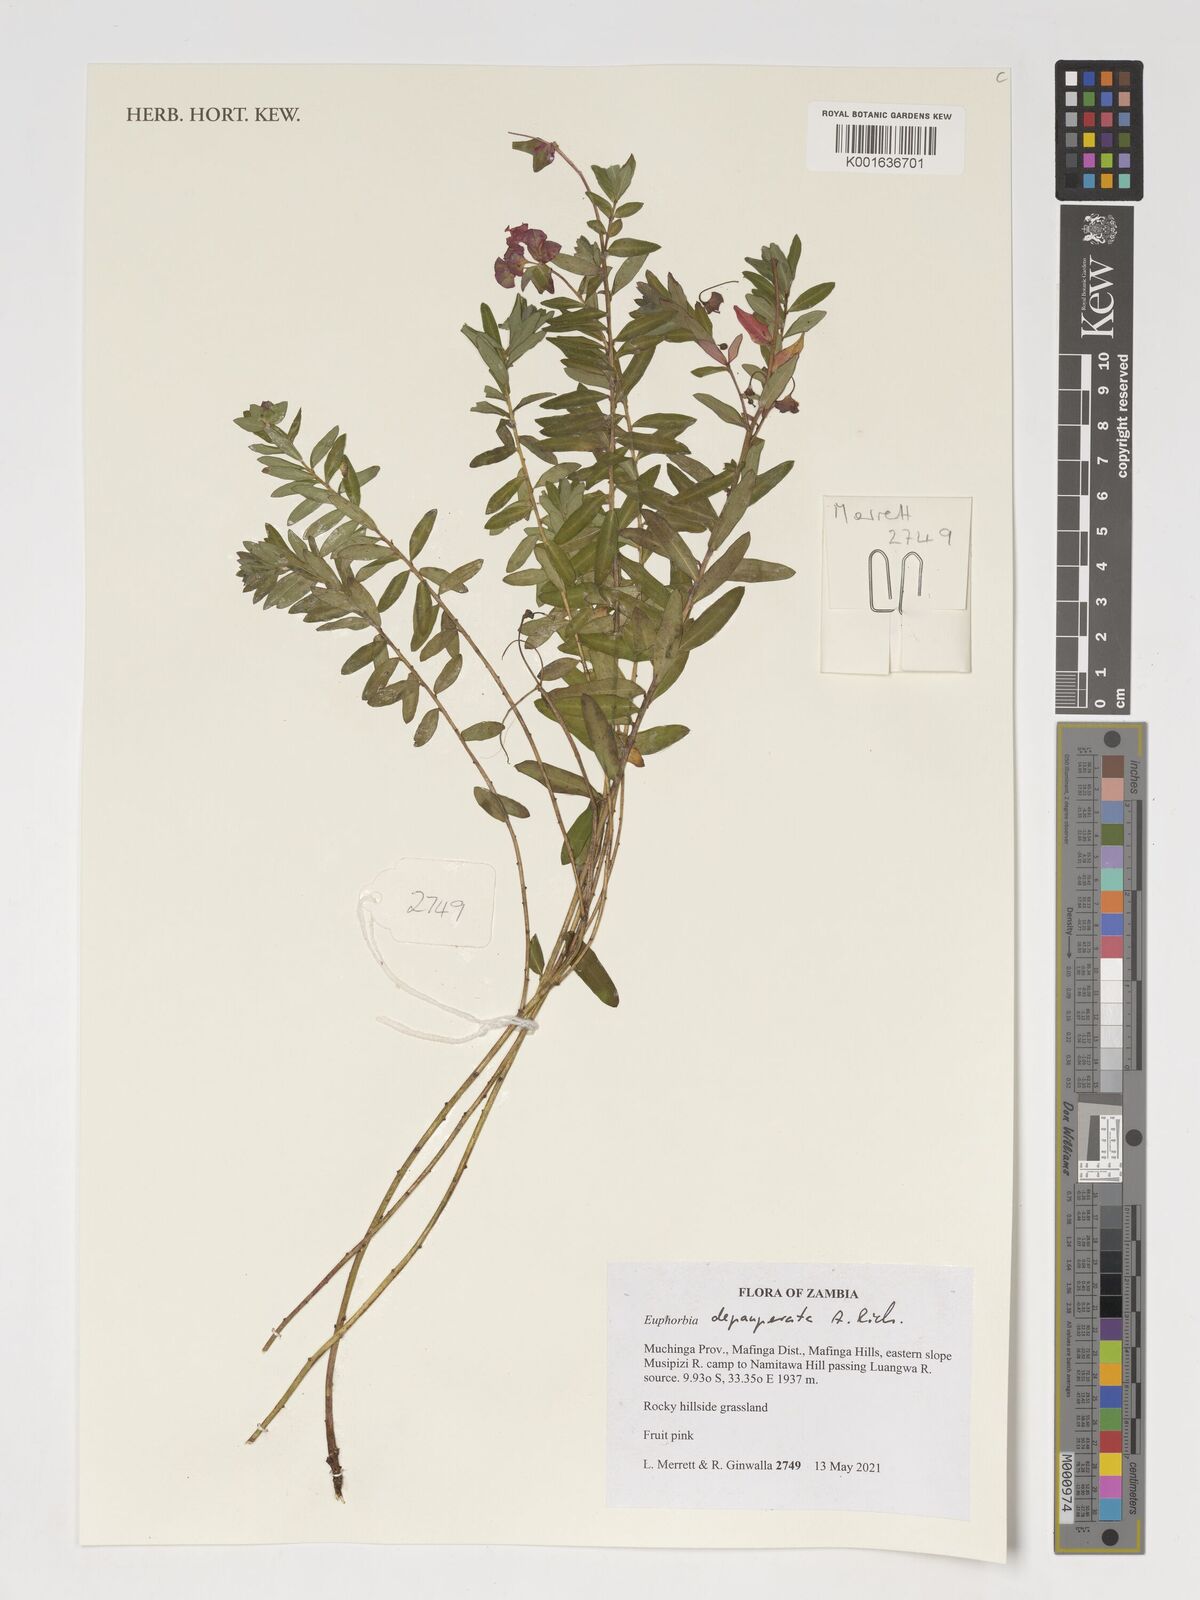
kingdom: Plantae
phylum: Tracheophyta
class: Magnoliopsida
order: Malpighiales
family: Euphorbiaceae
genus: Euphorbia
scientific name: Euphorbia depauperata
